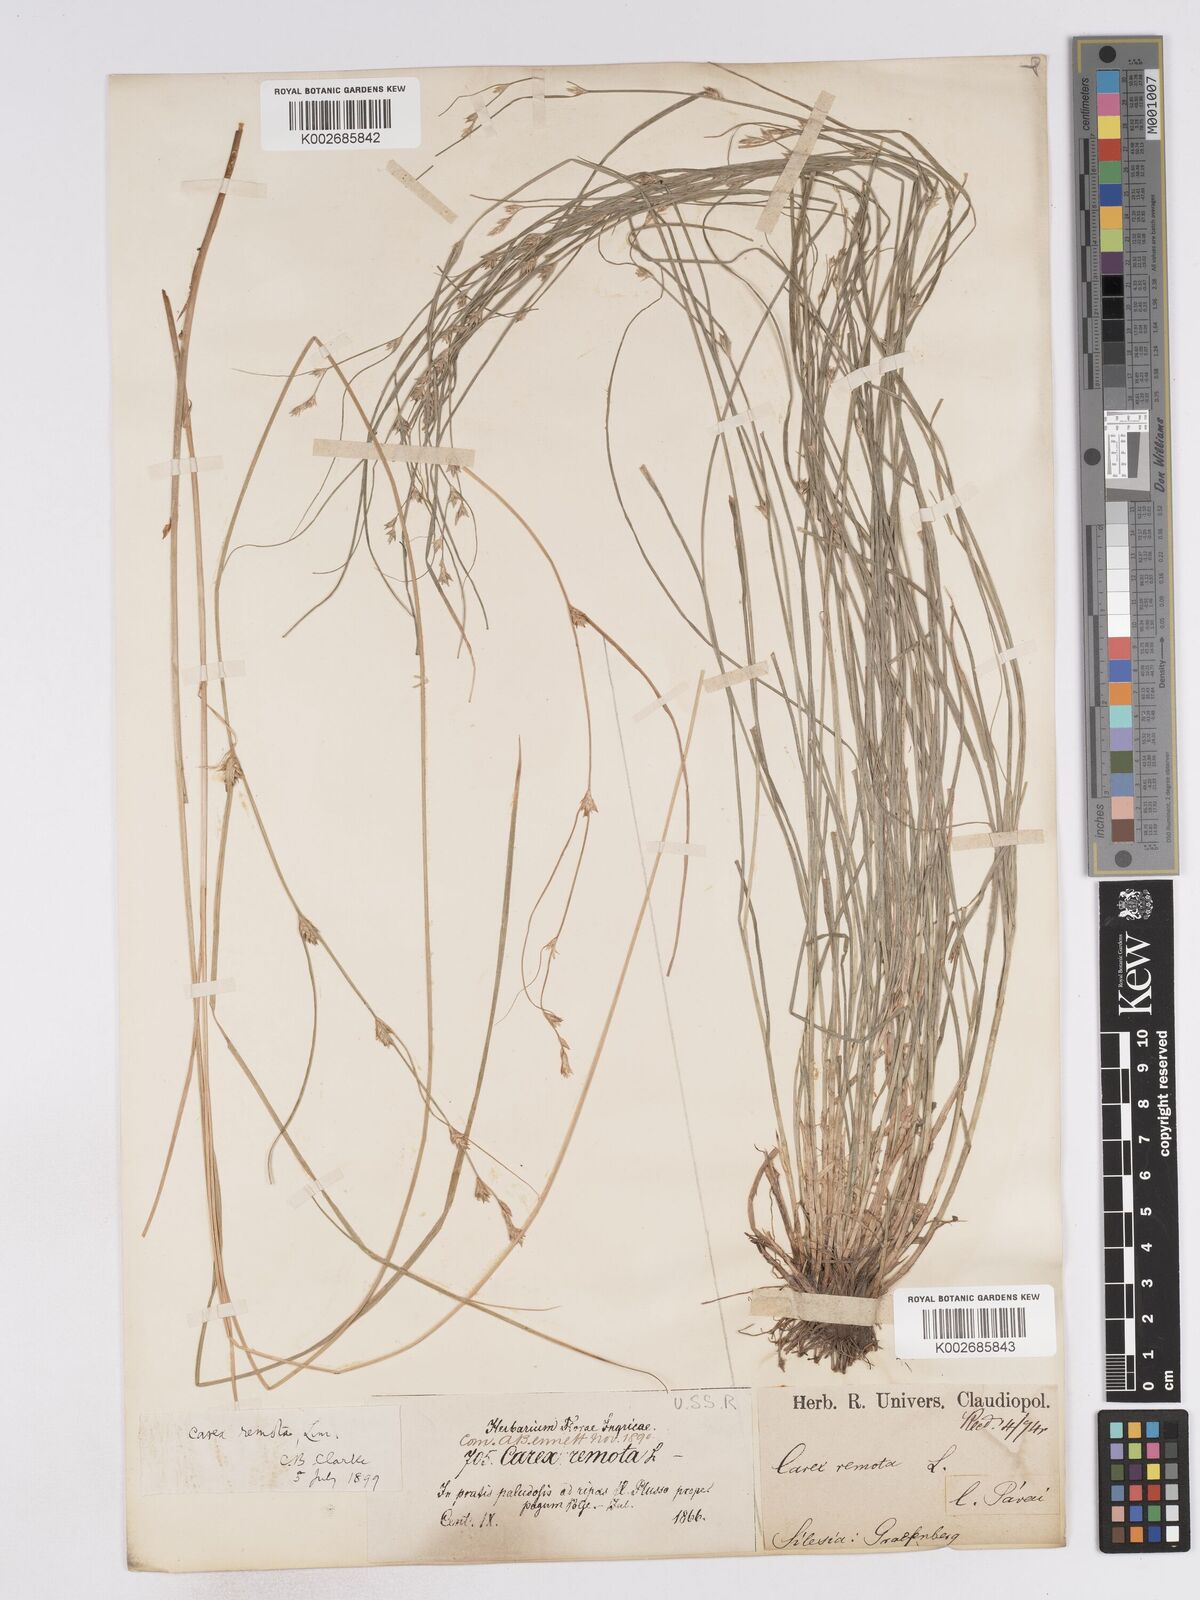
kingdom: Plantae
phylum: Tracheophyta
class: Liliopsida
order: Poales
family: Cyperaceae
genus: Carex
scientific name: Carex remota
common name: Remote sedge
